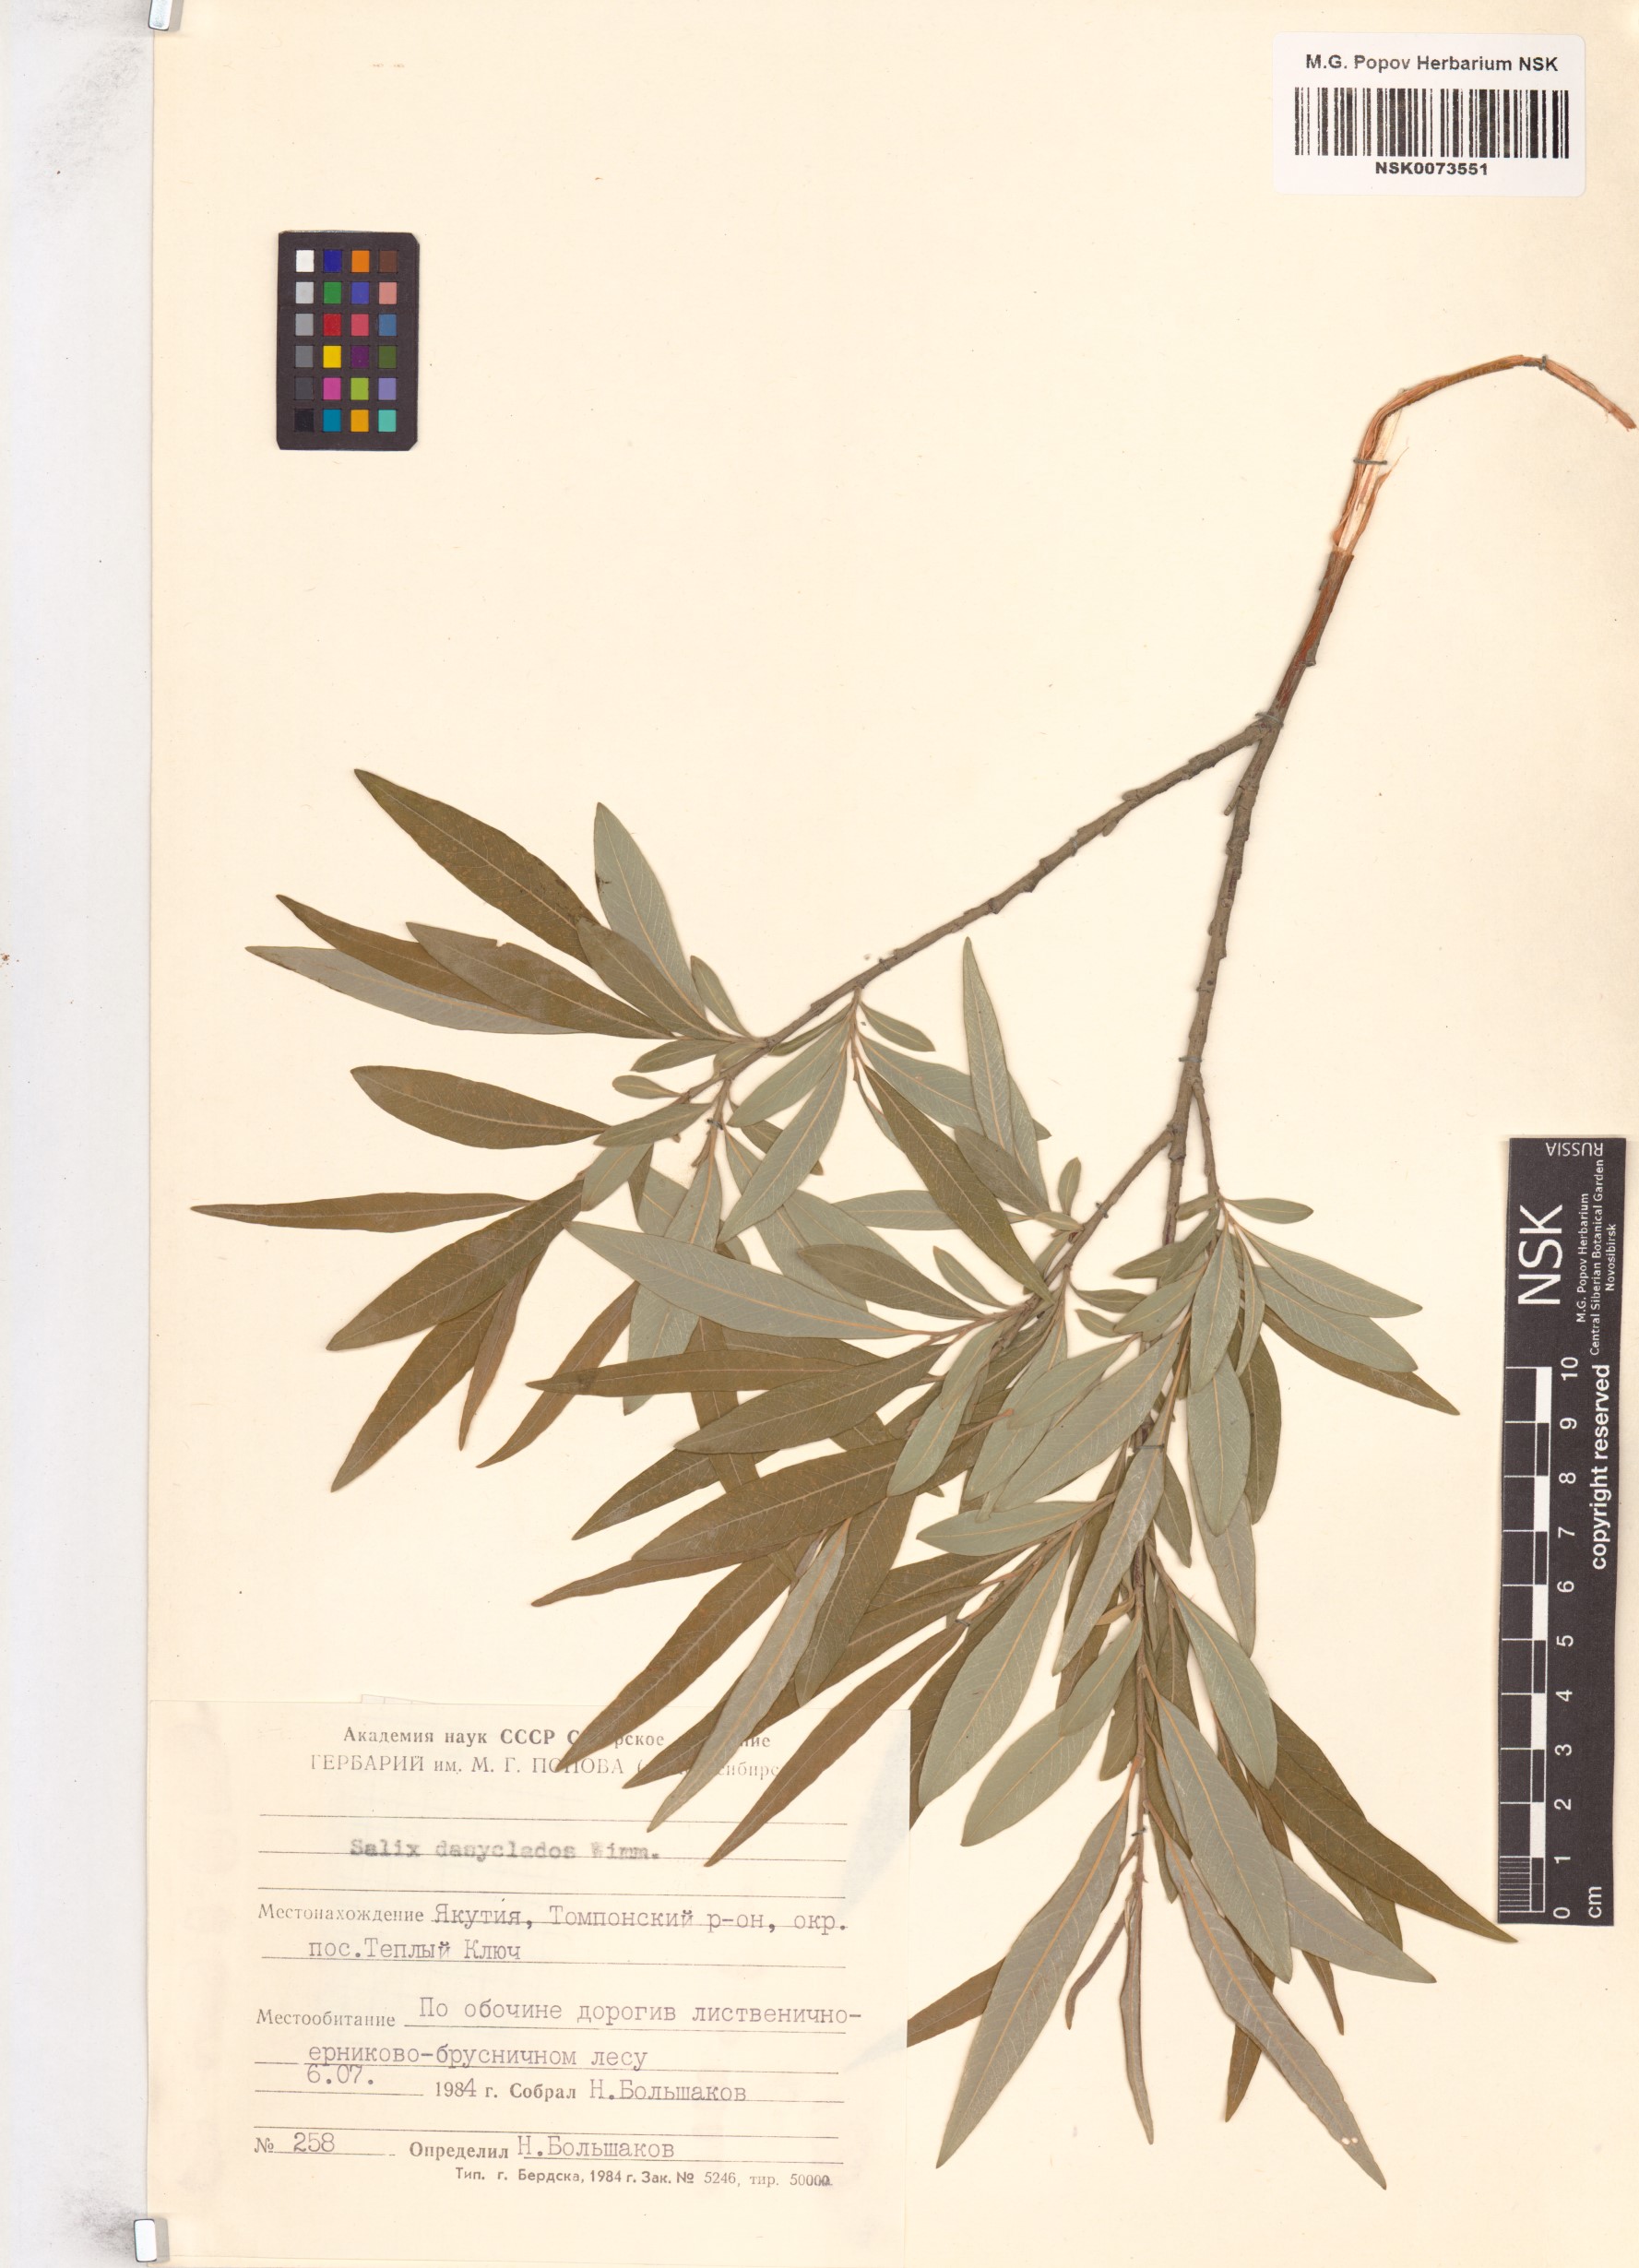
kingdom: Plantae
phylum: Tracheophyta
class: Magnoliopsida
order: Malpighiales
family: Salicaceae
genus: Salix
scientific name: Salix gmelinii
